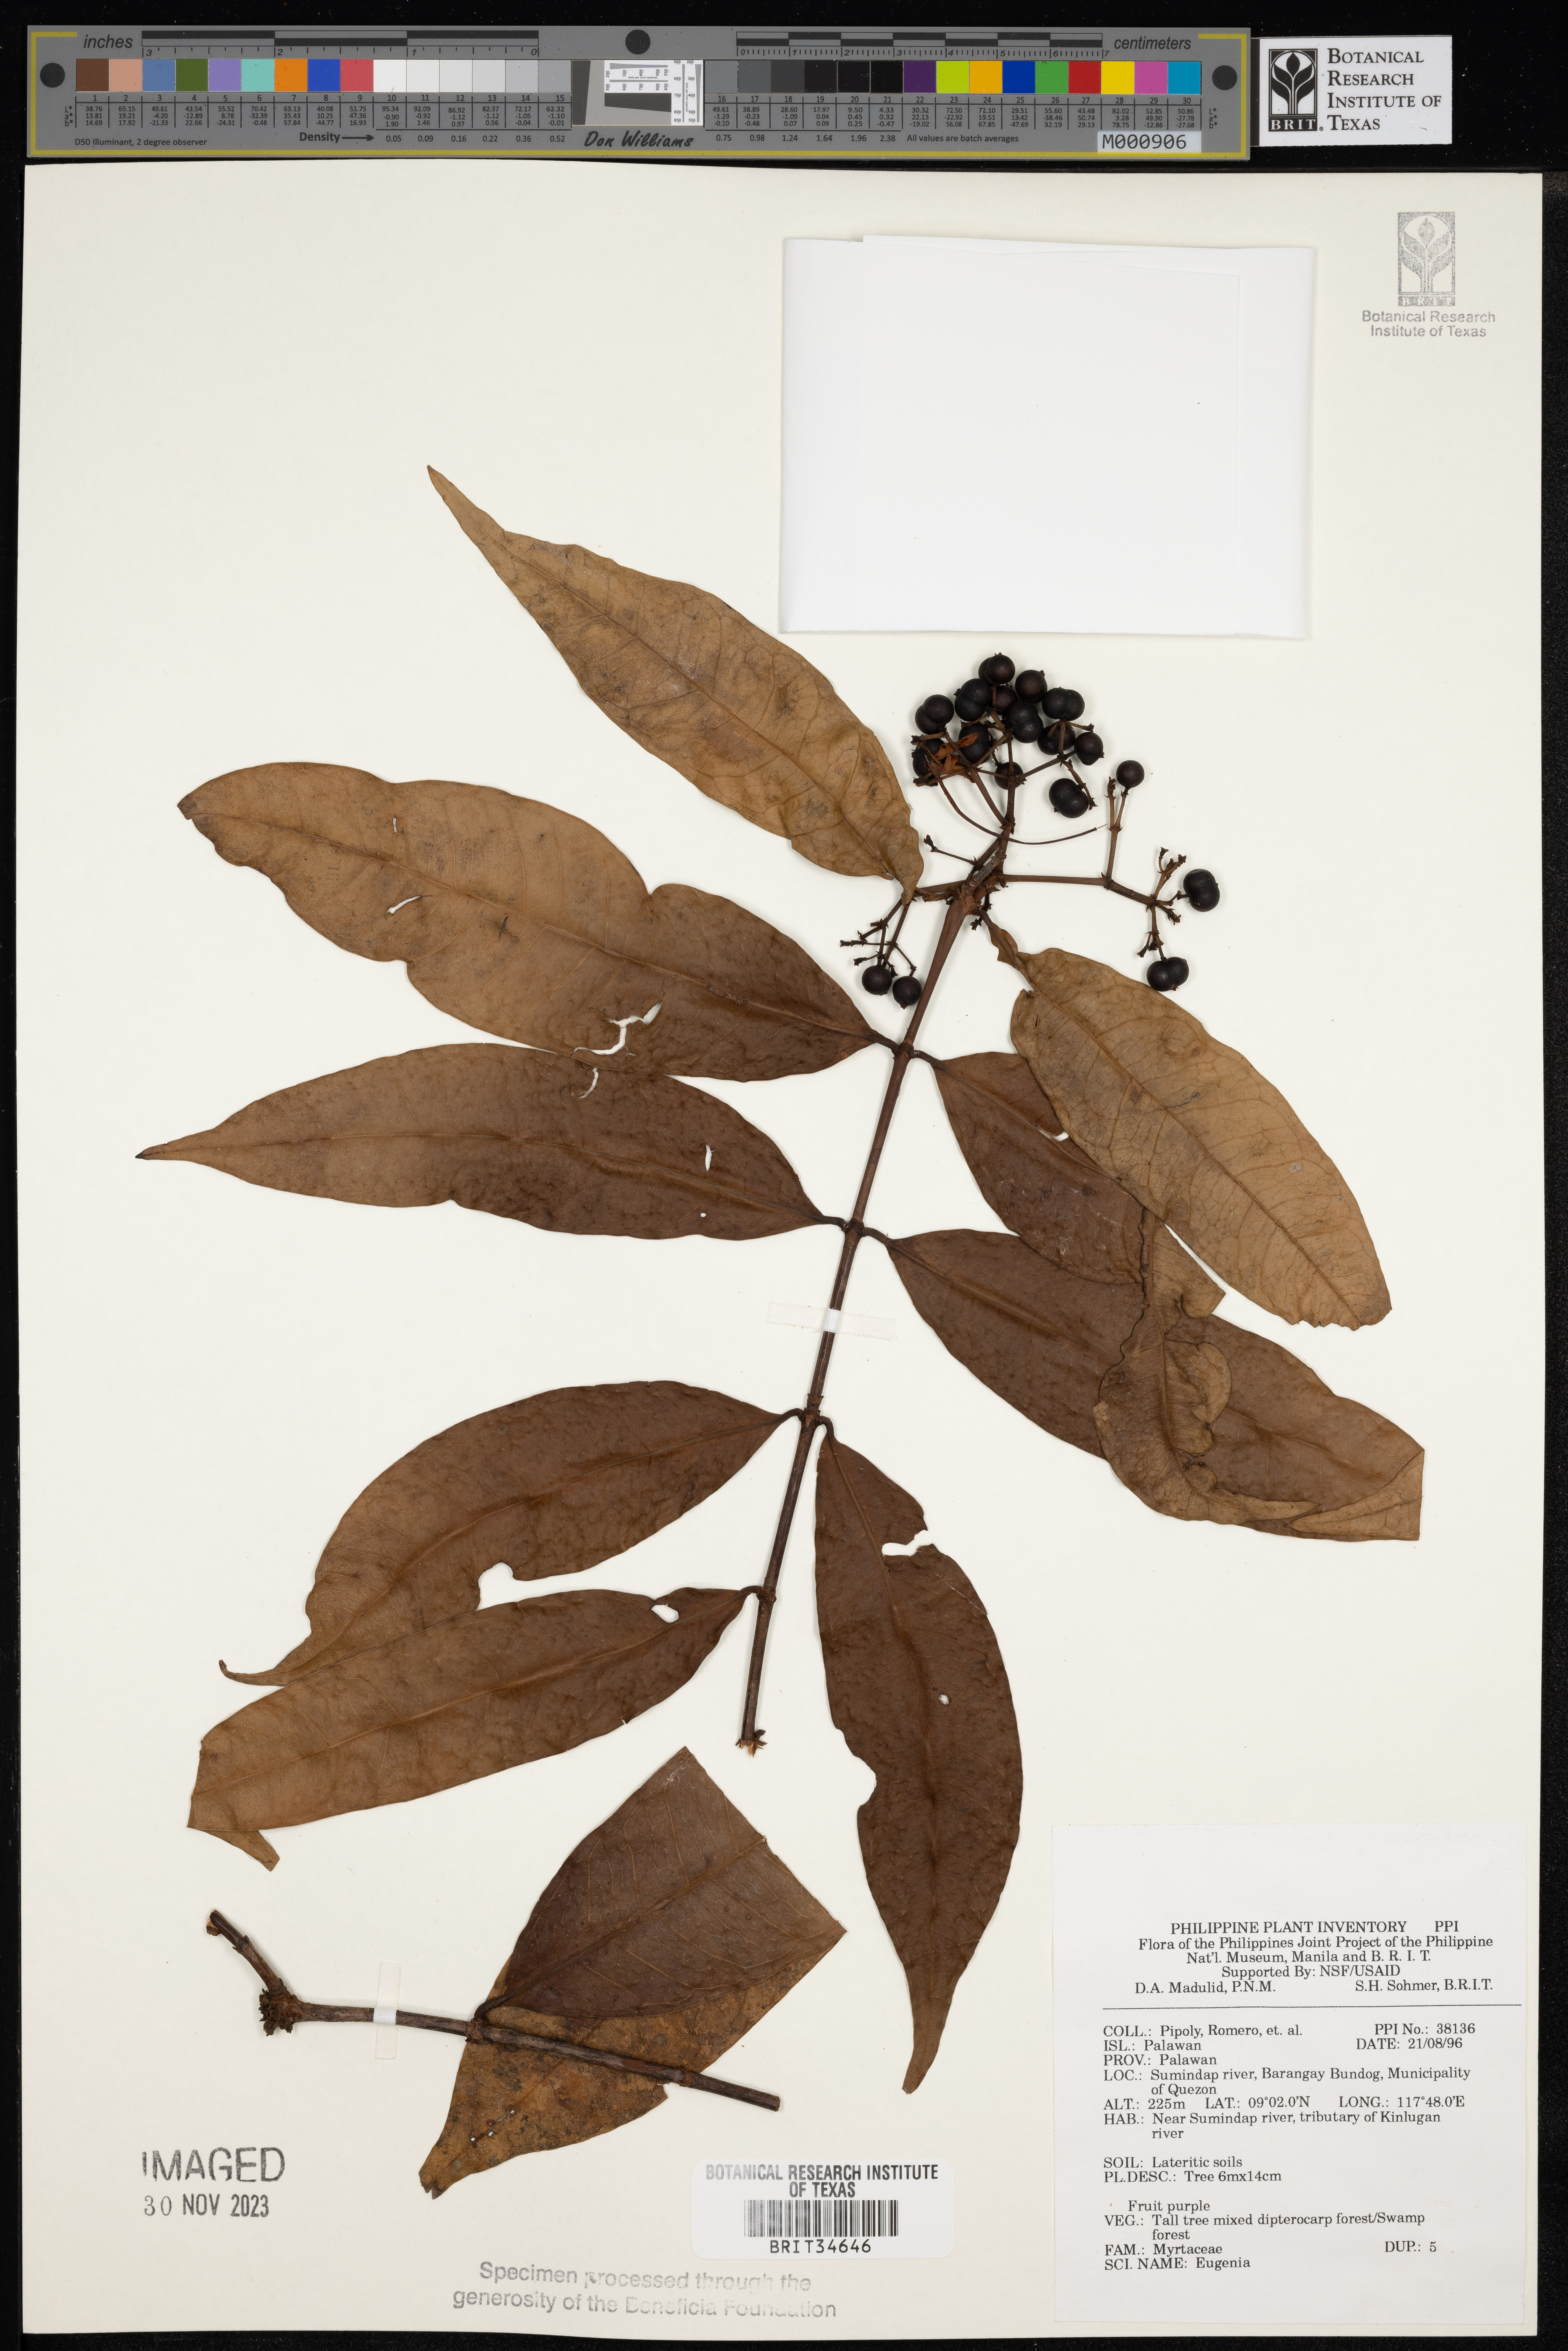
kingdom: Plantae
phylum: Tracheophyta
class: Magnoliopsida
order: Myrtales
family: Myrtaceae
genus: Eugenia
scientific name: Eugenia
